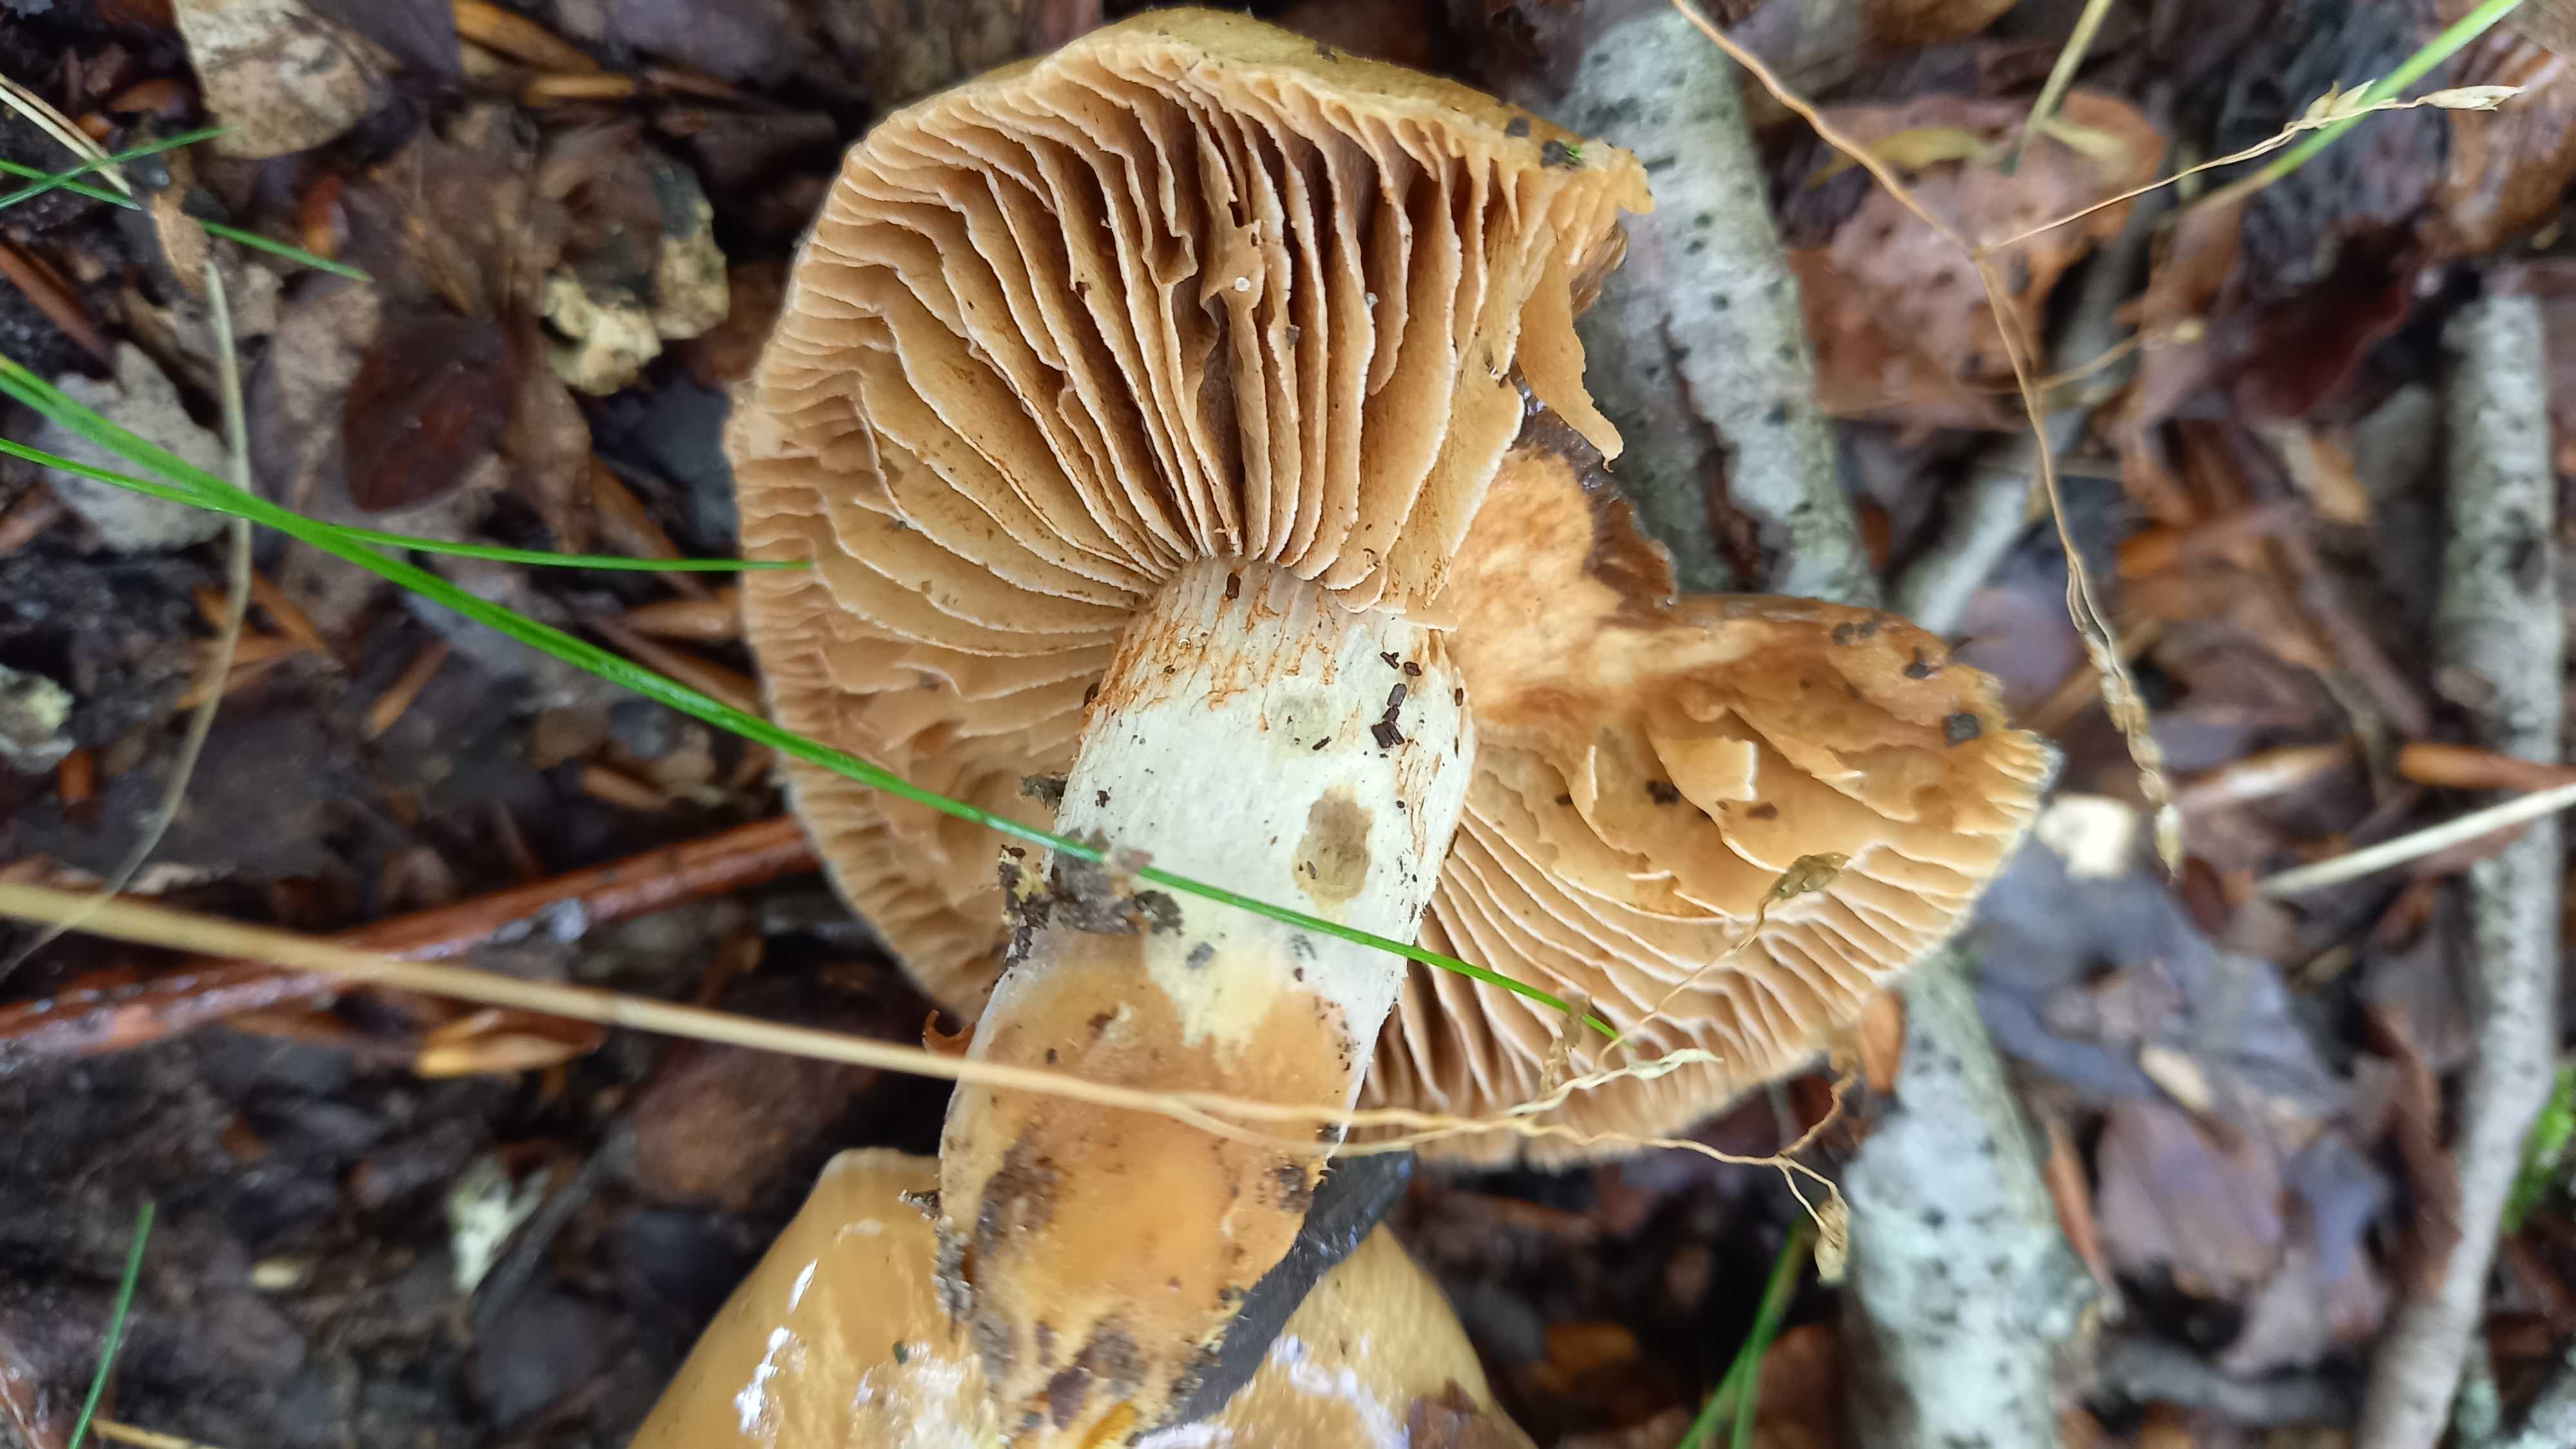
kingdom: Fungi
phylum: Basidiomycota
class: Agaricomycetes
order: Agaricales
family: Cortinariaceae
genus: Cortinarius
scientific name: Cortinarius
